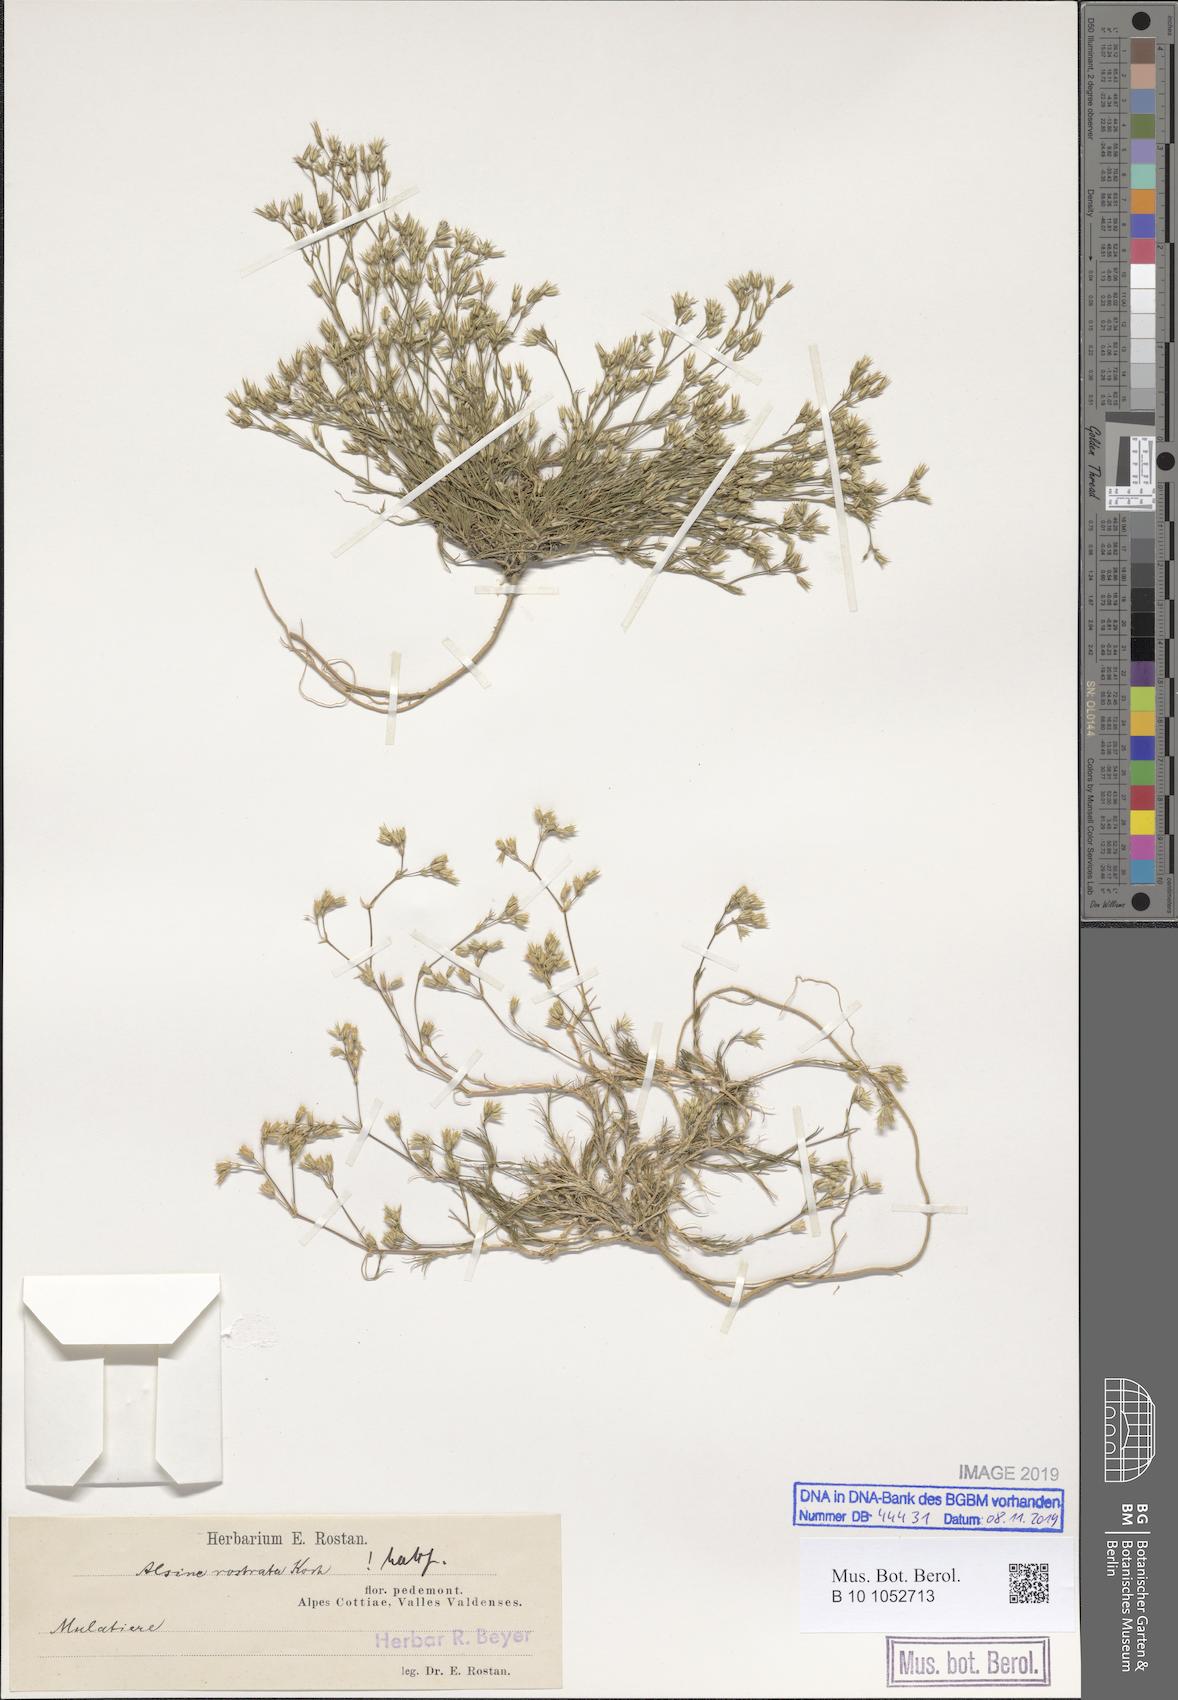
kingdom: Plantae
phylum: Tracheophyta
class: Magnoliopsida
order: Caryophyllales
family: Caryophyllaceae
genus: Minuartia
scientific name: Minuartia rostrata
